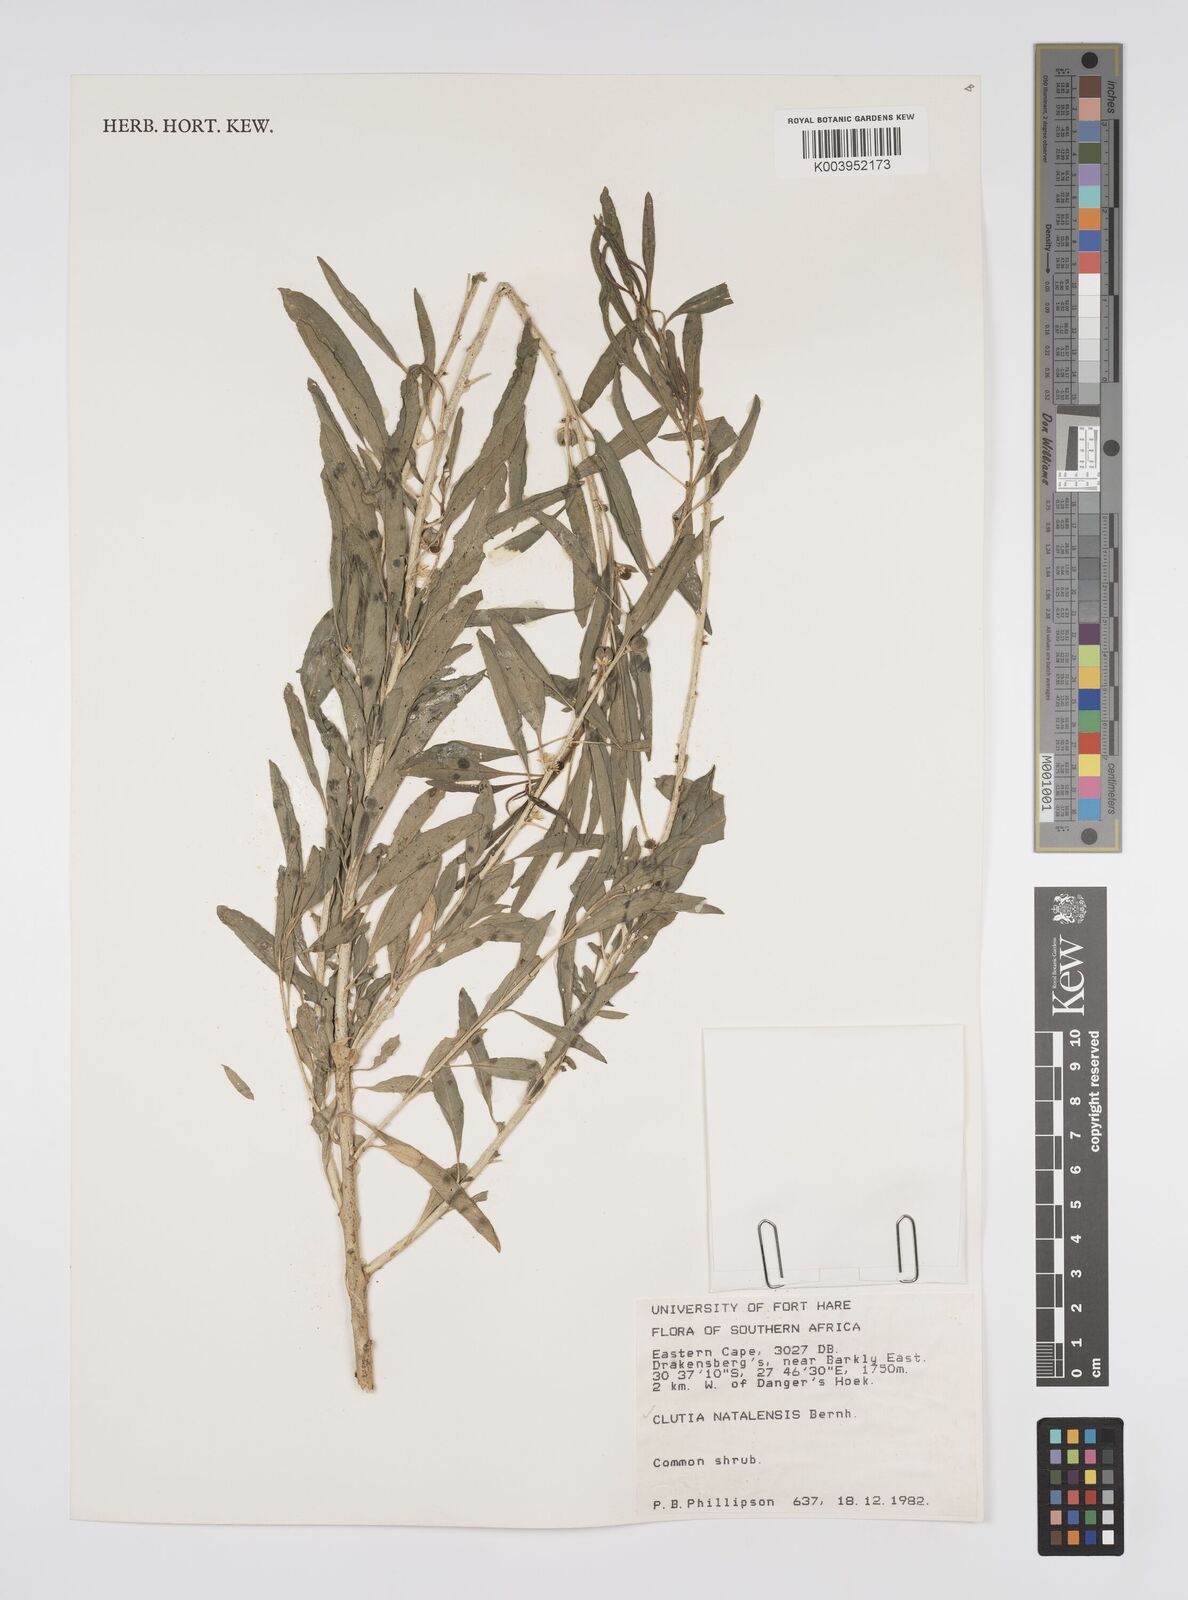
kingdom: Plantae
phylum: Tracheophyta
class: Magnoliopsida
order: Malpighiales
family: Peraceae
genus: Clutia
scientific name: Clutia natalensis
